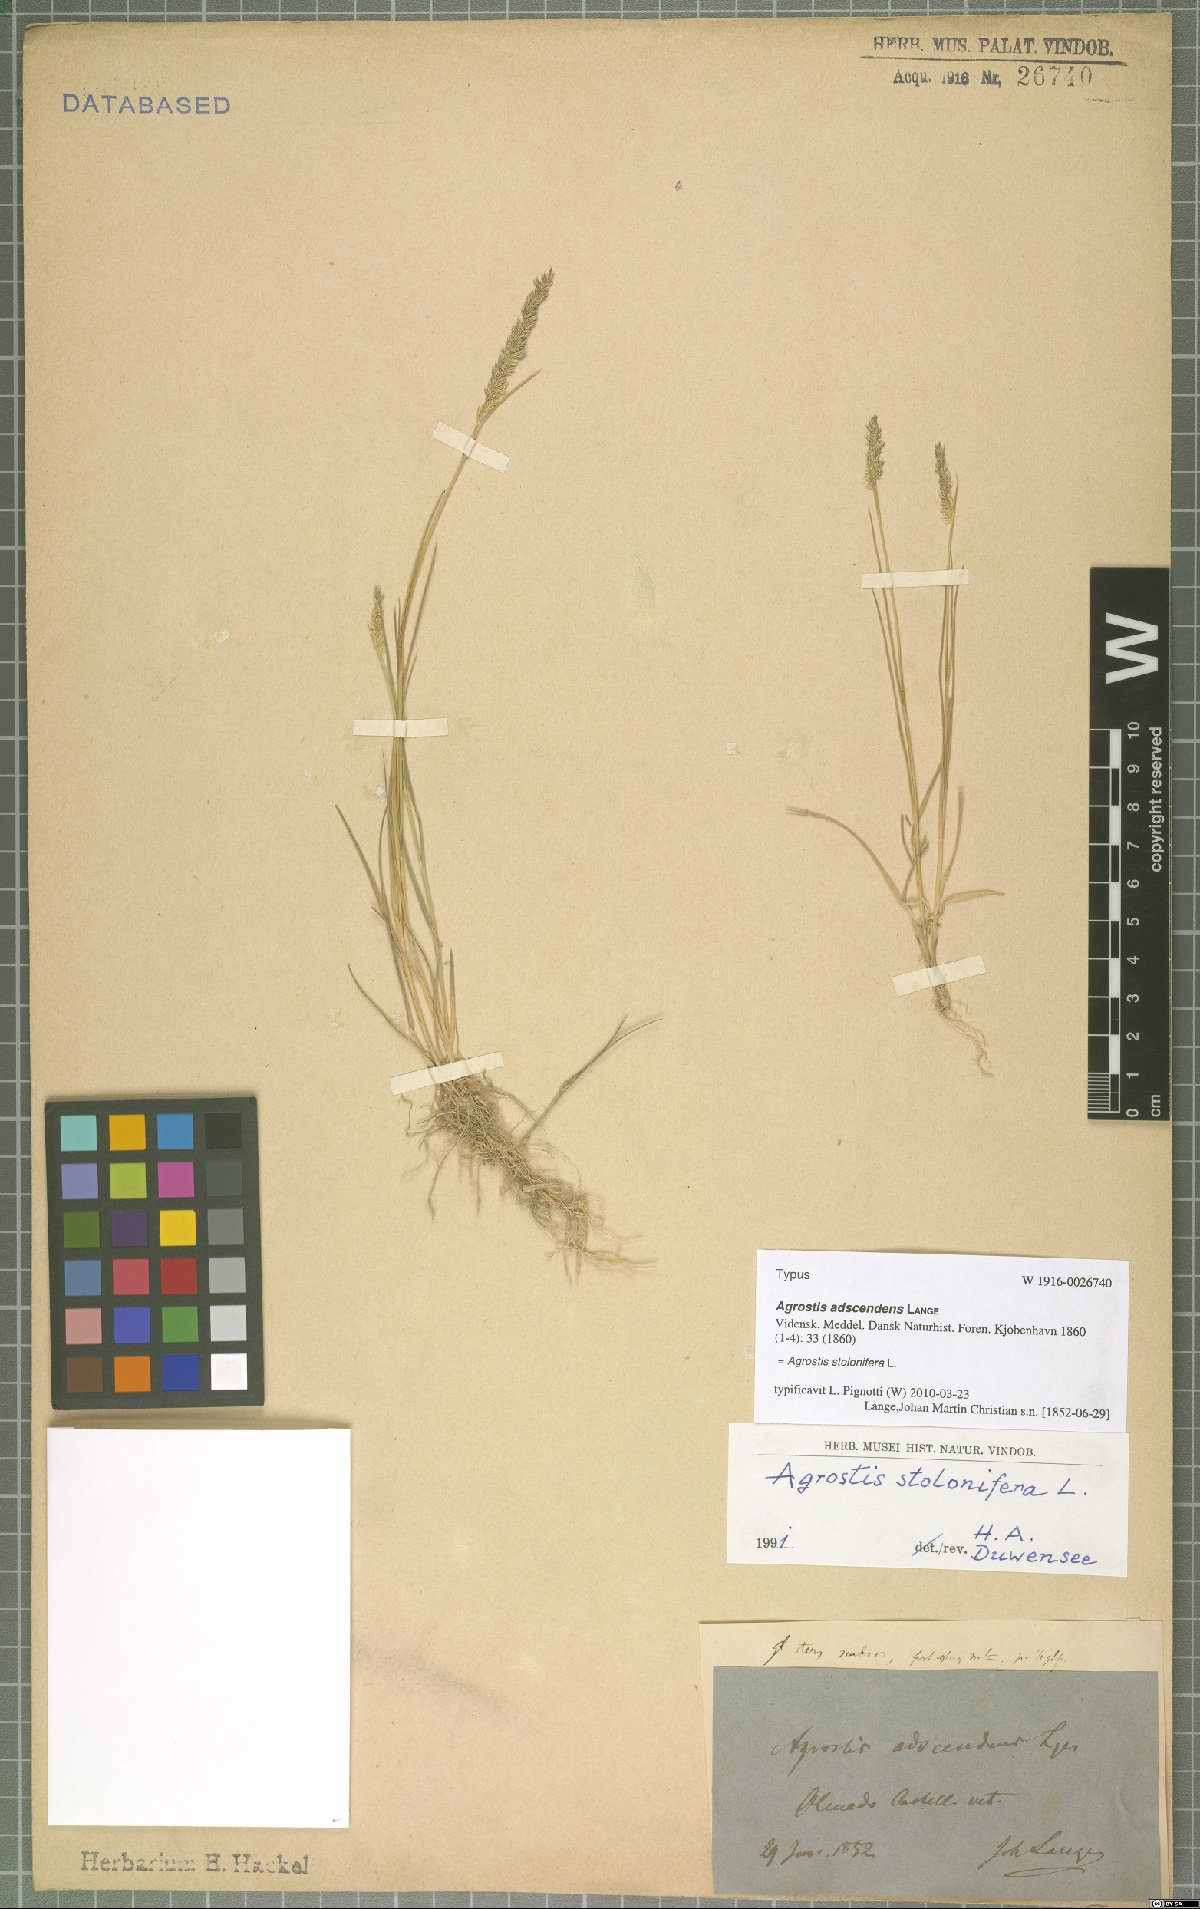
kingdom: Plantae
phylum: Tracheophyta
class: Liliopsida
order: Poales
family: Poaceae
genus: Agrostis
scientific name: Agrostis stolonifera
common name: Creeping bentgrass
